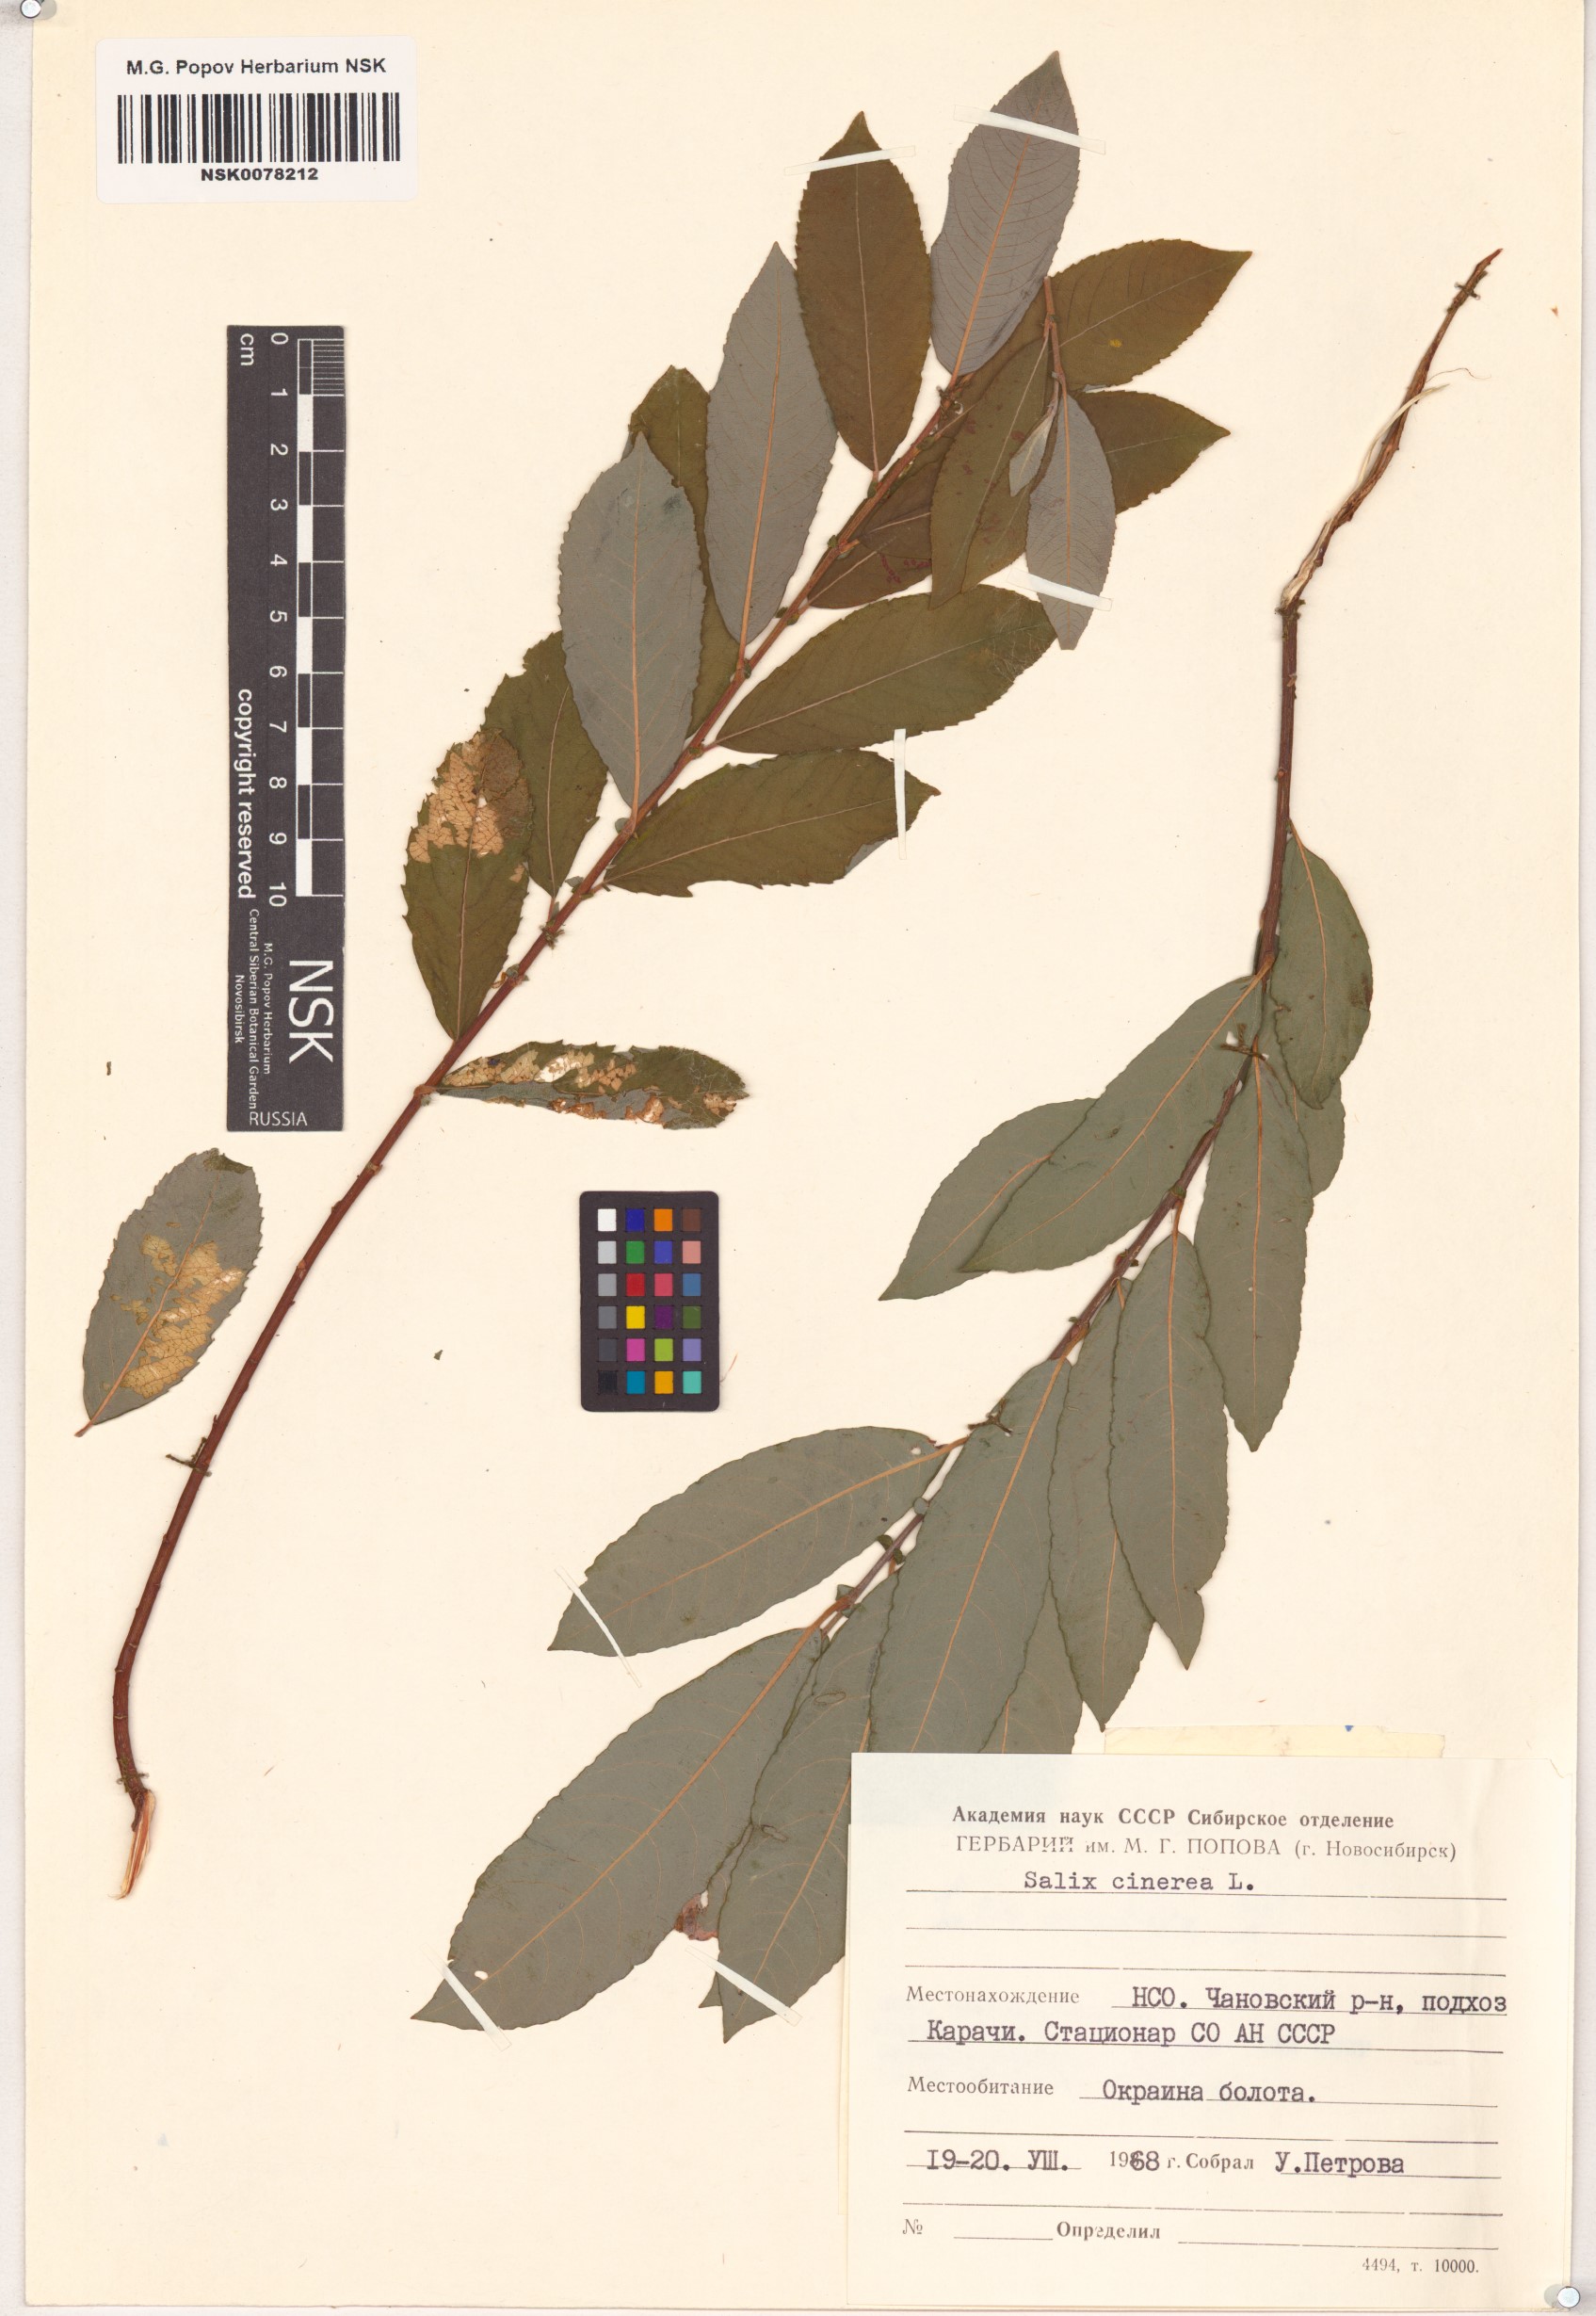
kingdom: Plantae
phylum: Tracheophyta
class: Magnoliopsida
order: Malpighiales
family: Salicaceae
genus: Salix
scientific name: Salix cinerea
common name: Common sallow
